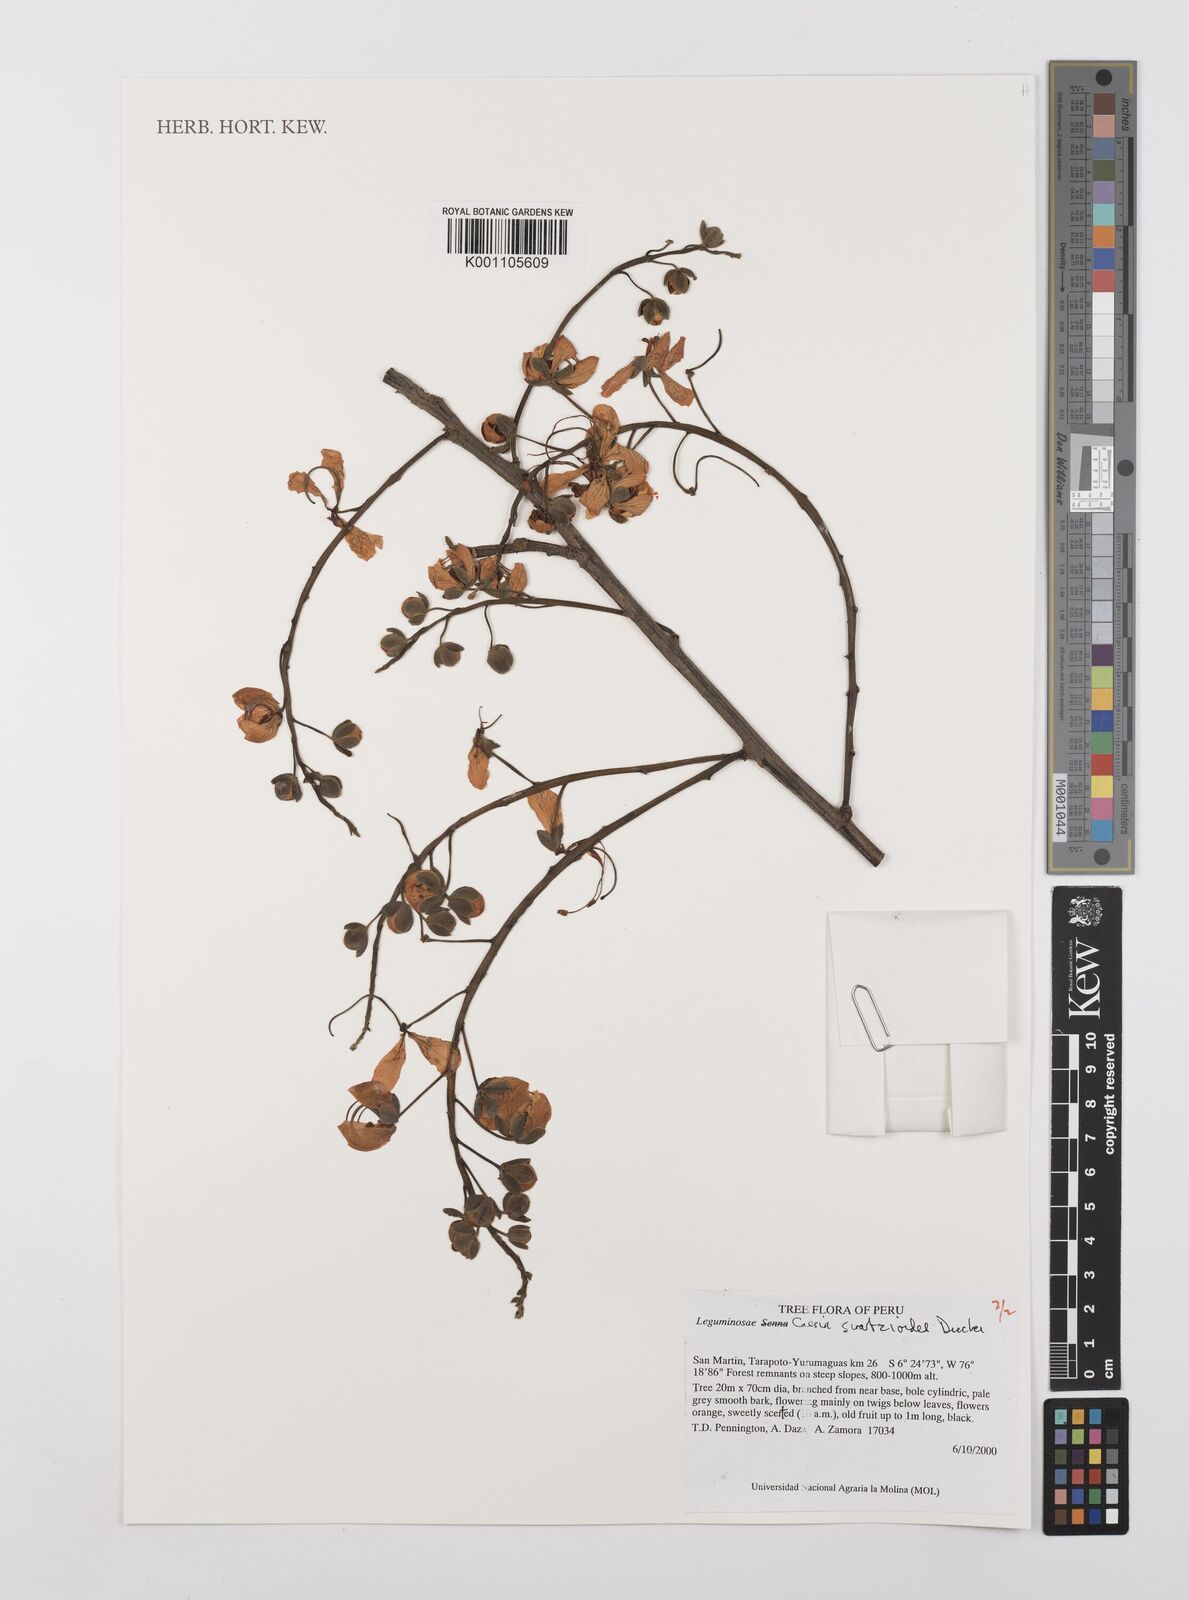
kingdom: Plantae
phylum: Tracheophyta
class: Magnoliopsida
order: Fabales
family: Fabaceae
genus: Cassia
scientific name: Cassia swartzioides
